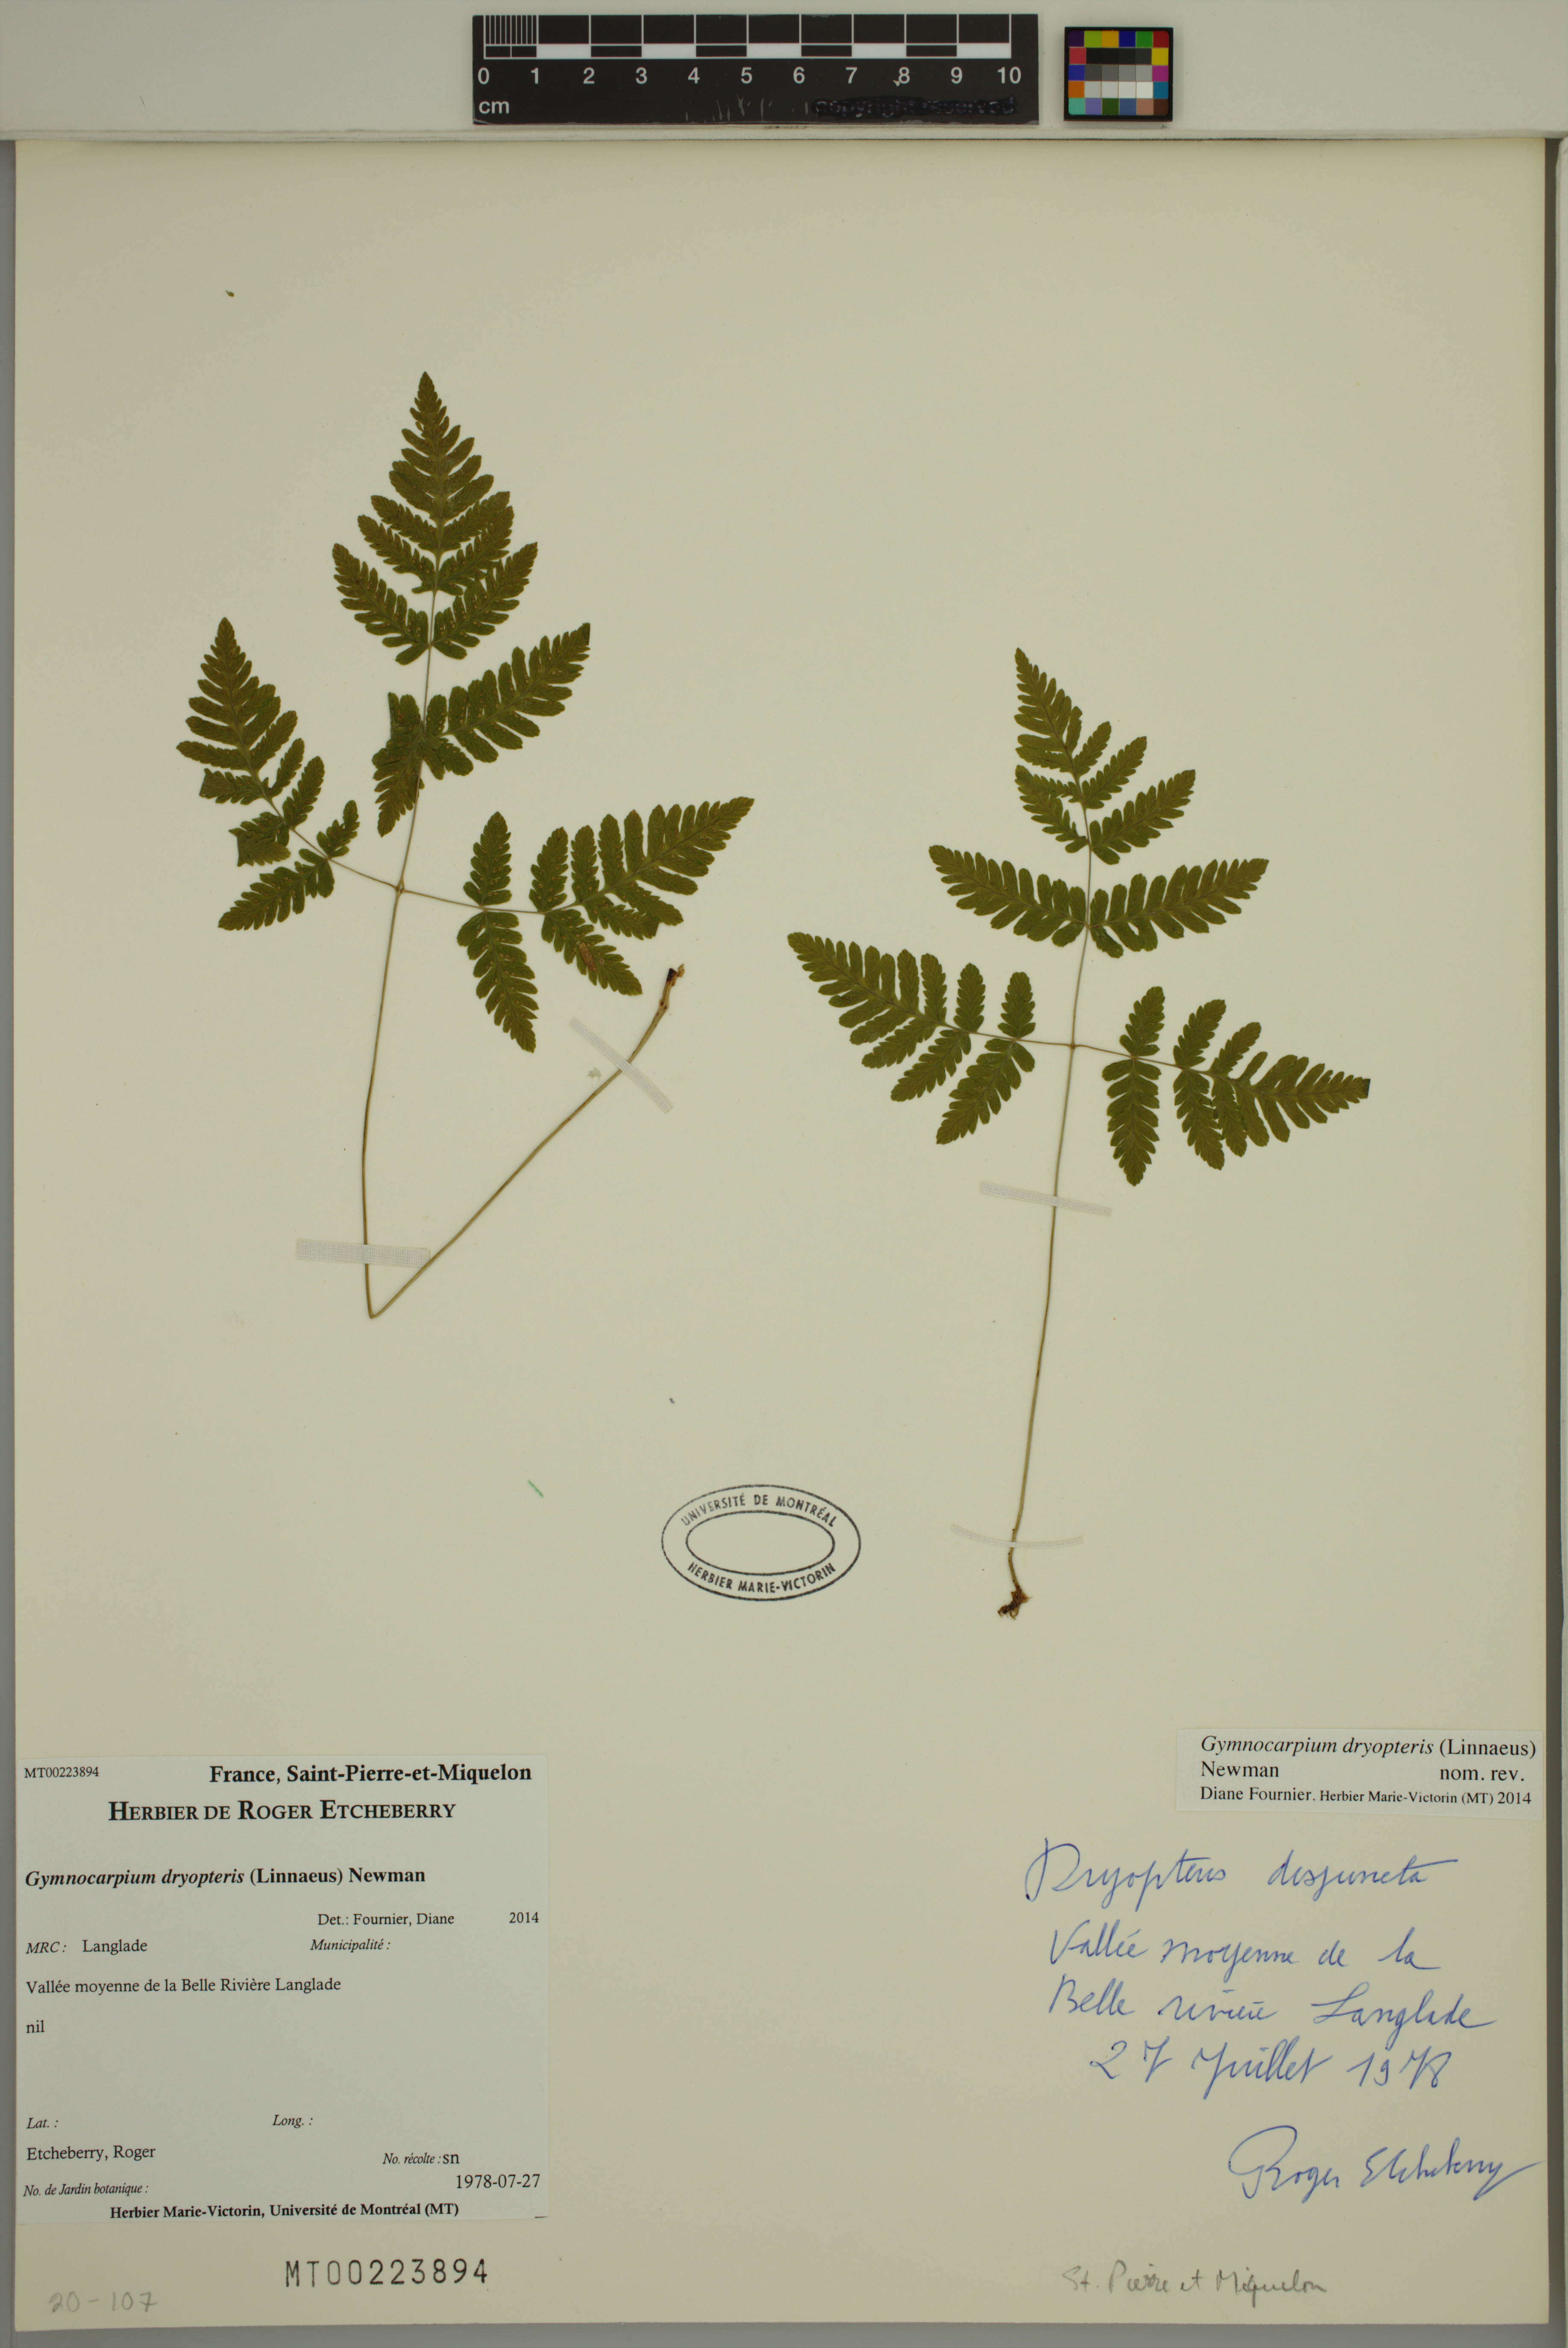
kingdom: Plantae
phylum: Tracheophyta
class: Polypodiopsida
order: Polypodiales
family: Cystopteridaceae
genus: Gymnocarpium
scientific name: Gymnocarpium dryopteris
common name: Oak fern
